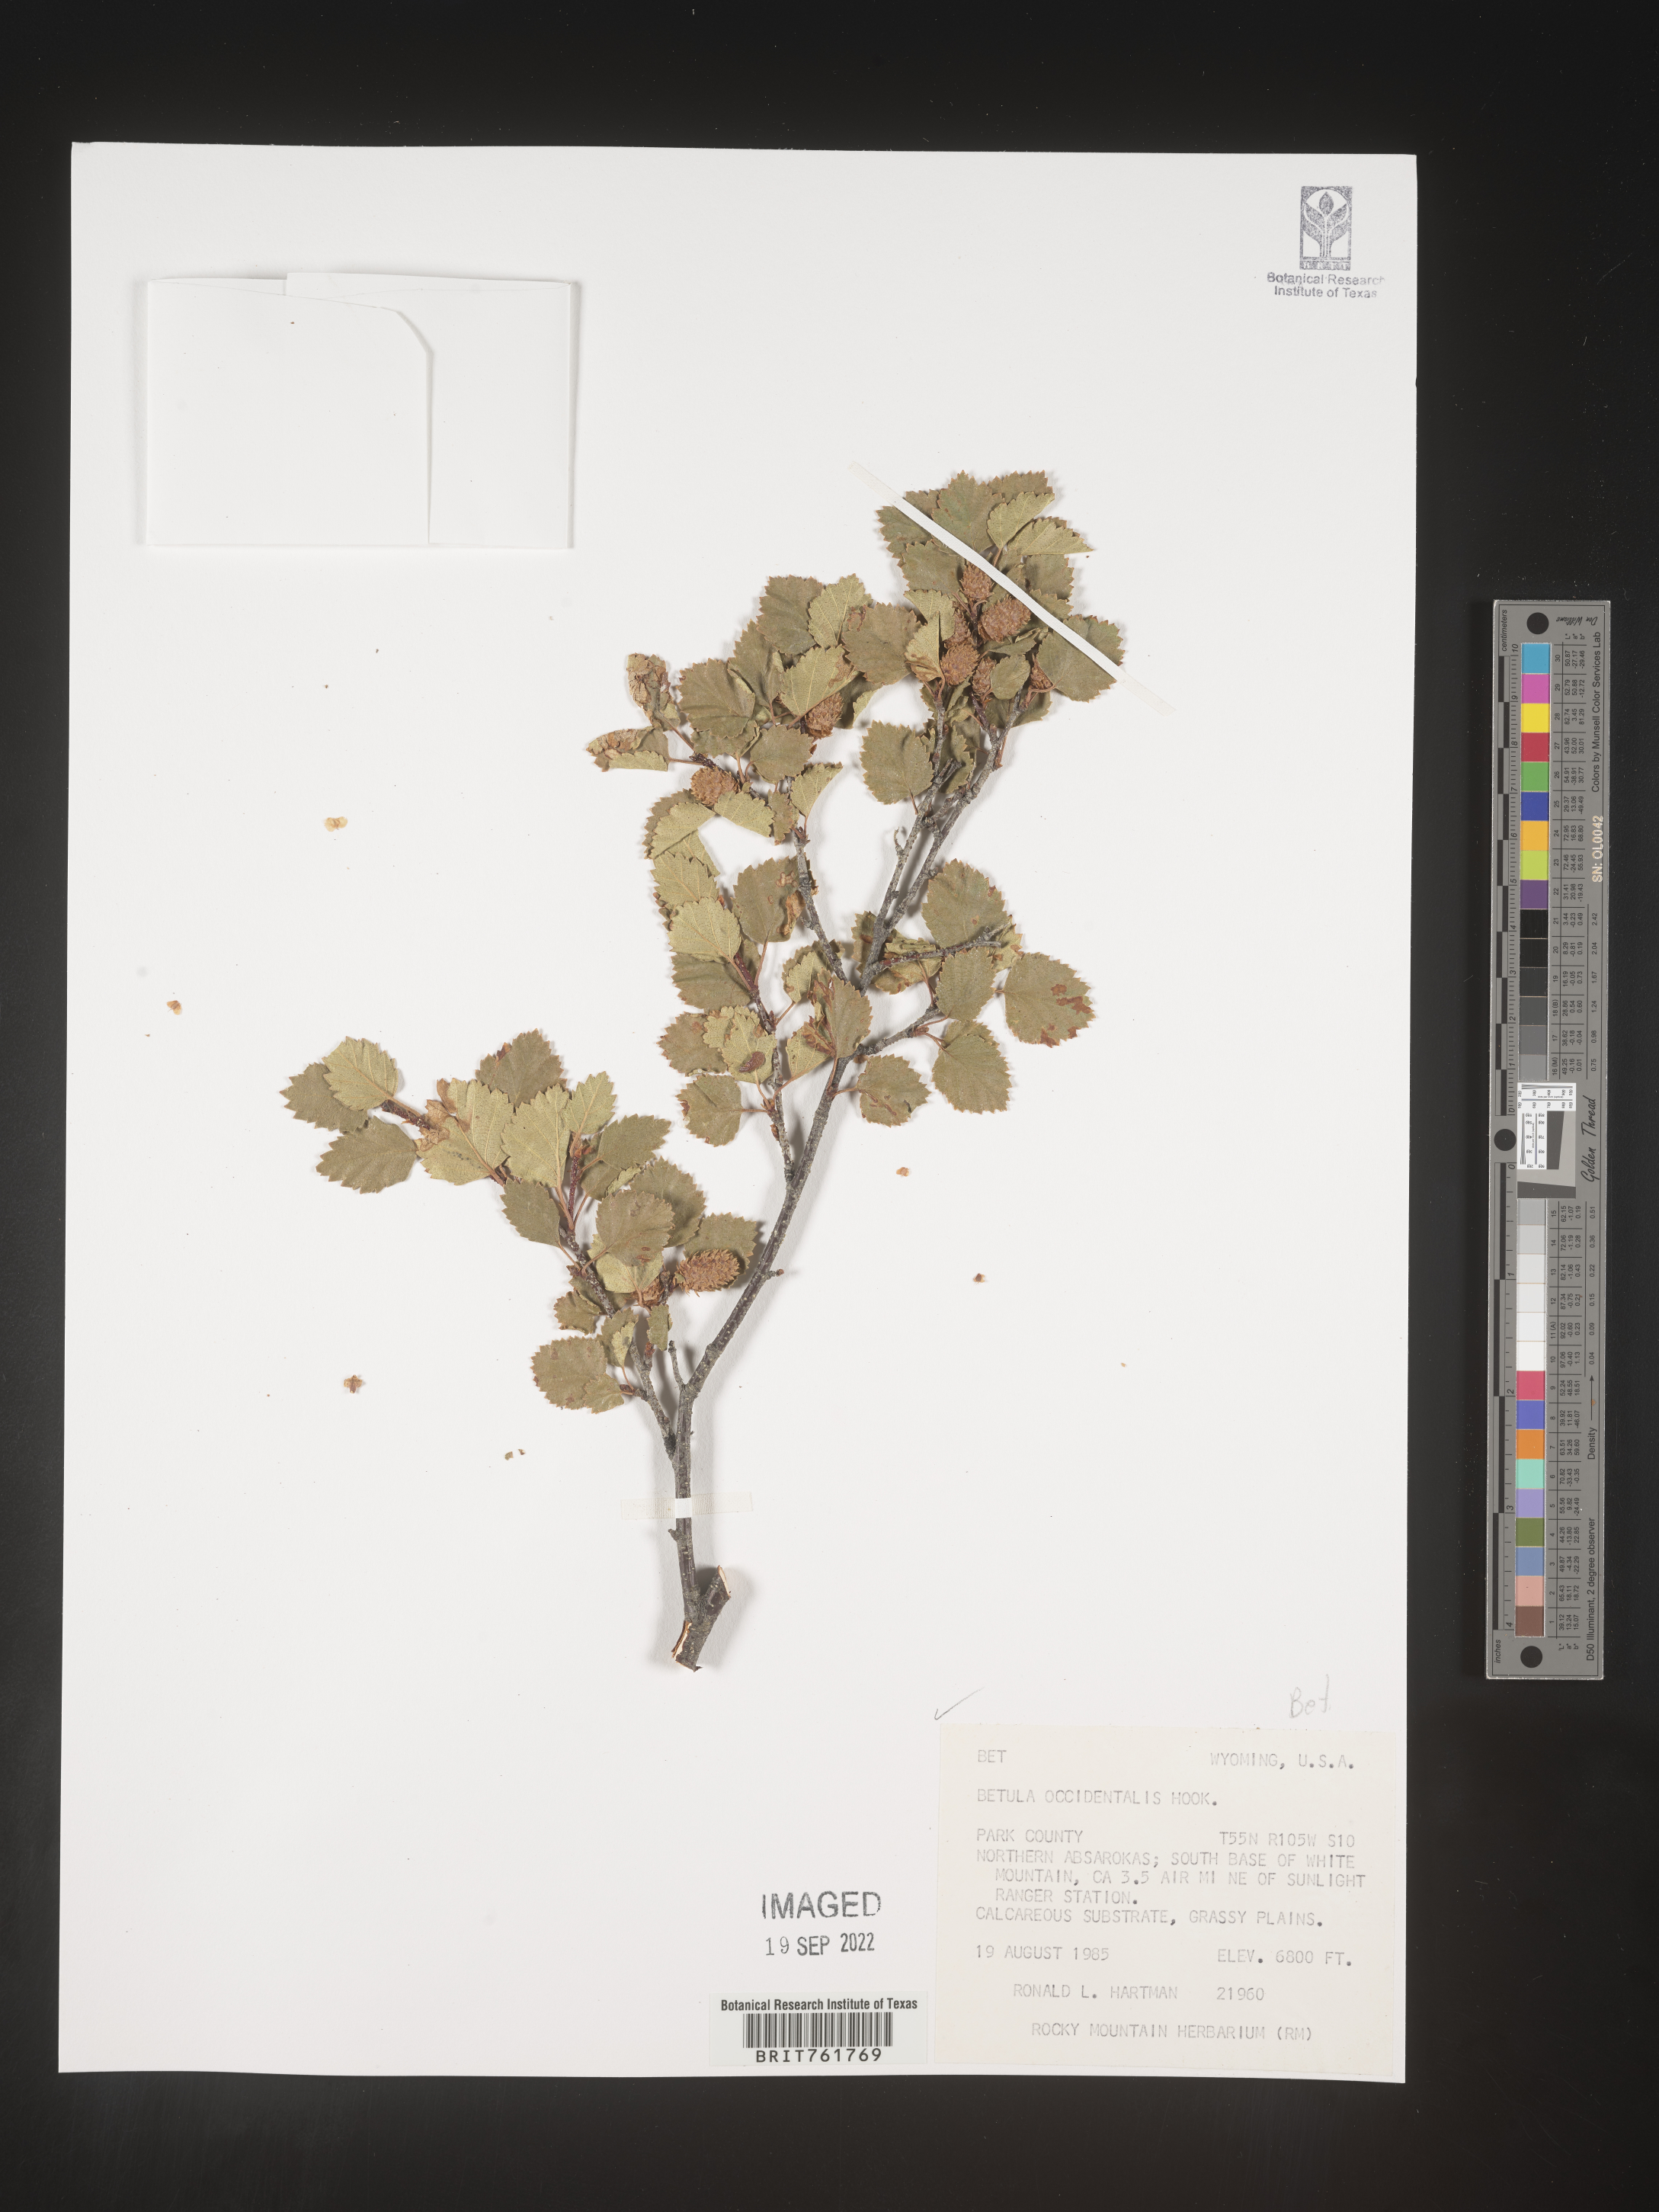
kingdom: Plantae
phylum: Tracheophyta
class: Magnoliopsida
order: Fagales
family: Betulaceae
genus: Betula
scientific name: Betula occidentalis
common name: River birch
